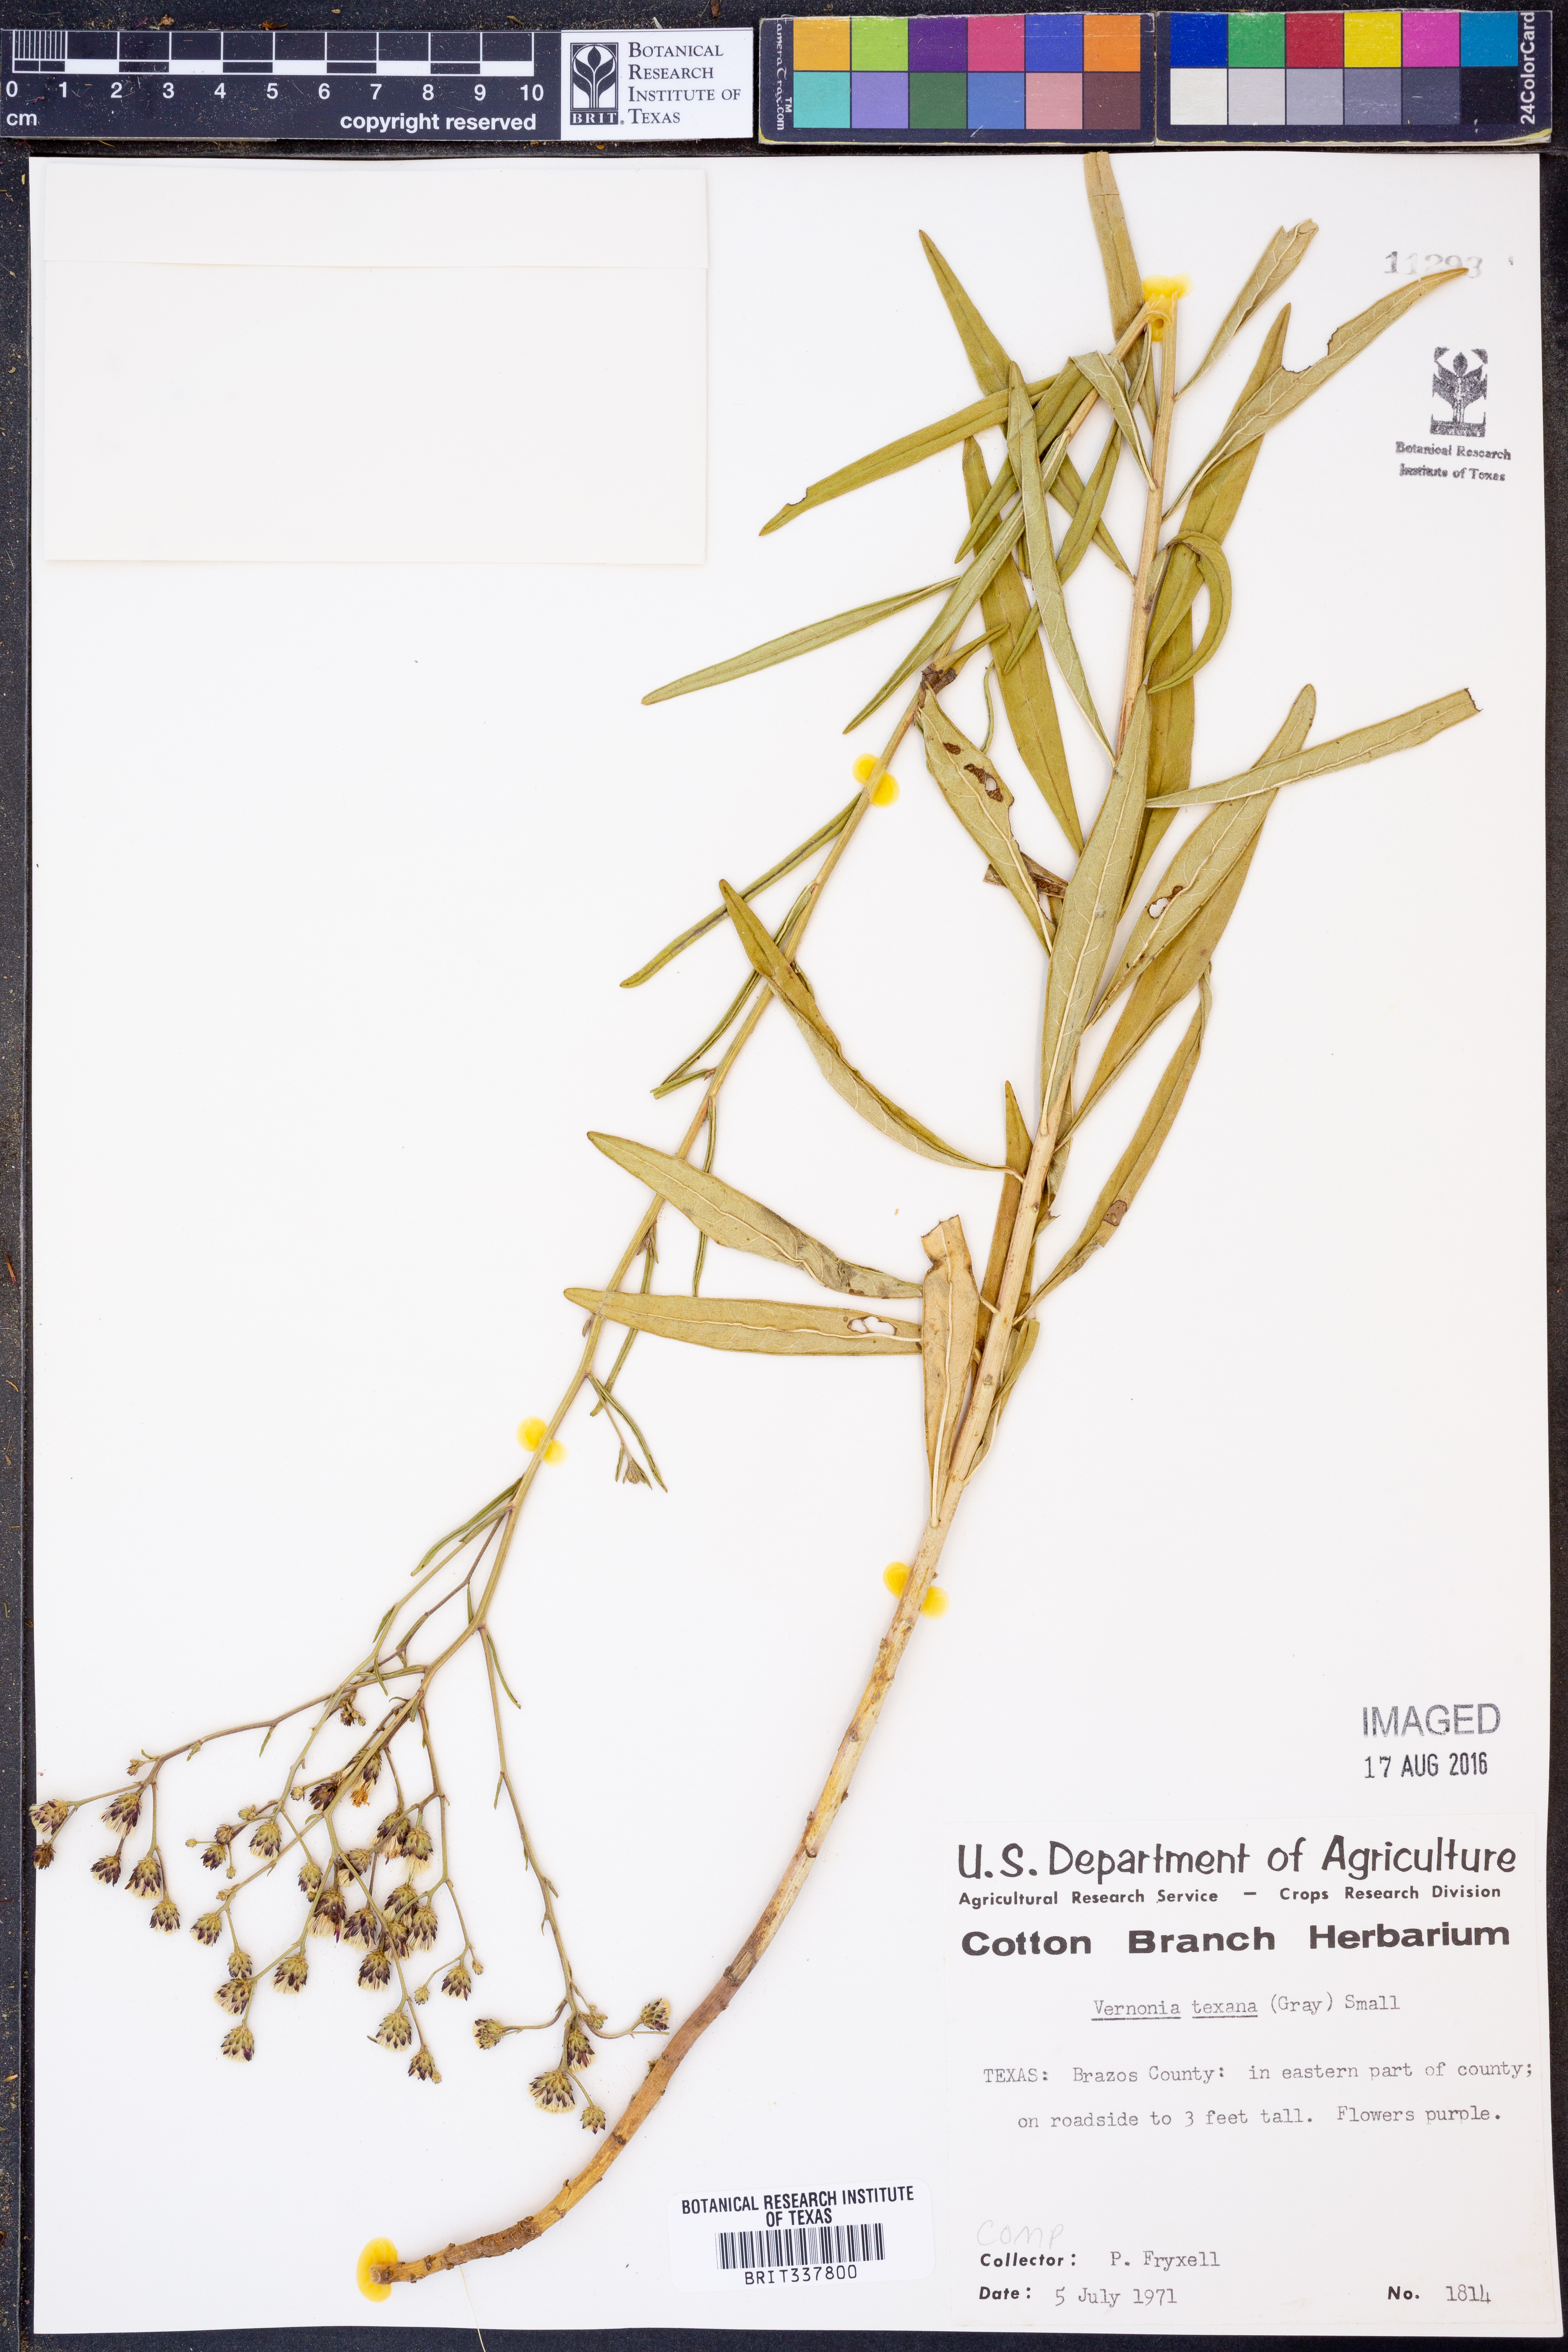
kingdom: Plantae
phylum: Tracheophyta
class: Magnoliopsida
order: Asterales
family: Asteraceae
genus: Vernonia
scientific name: Vernonia texana
